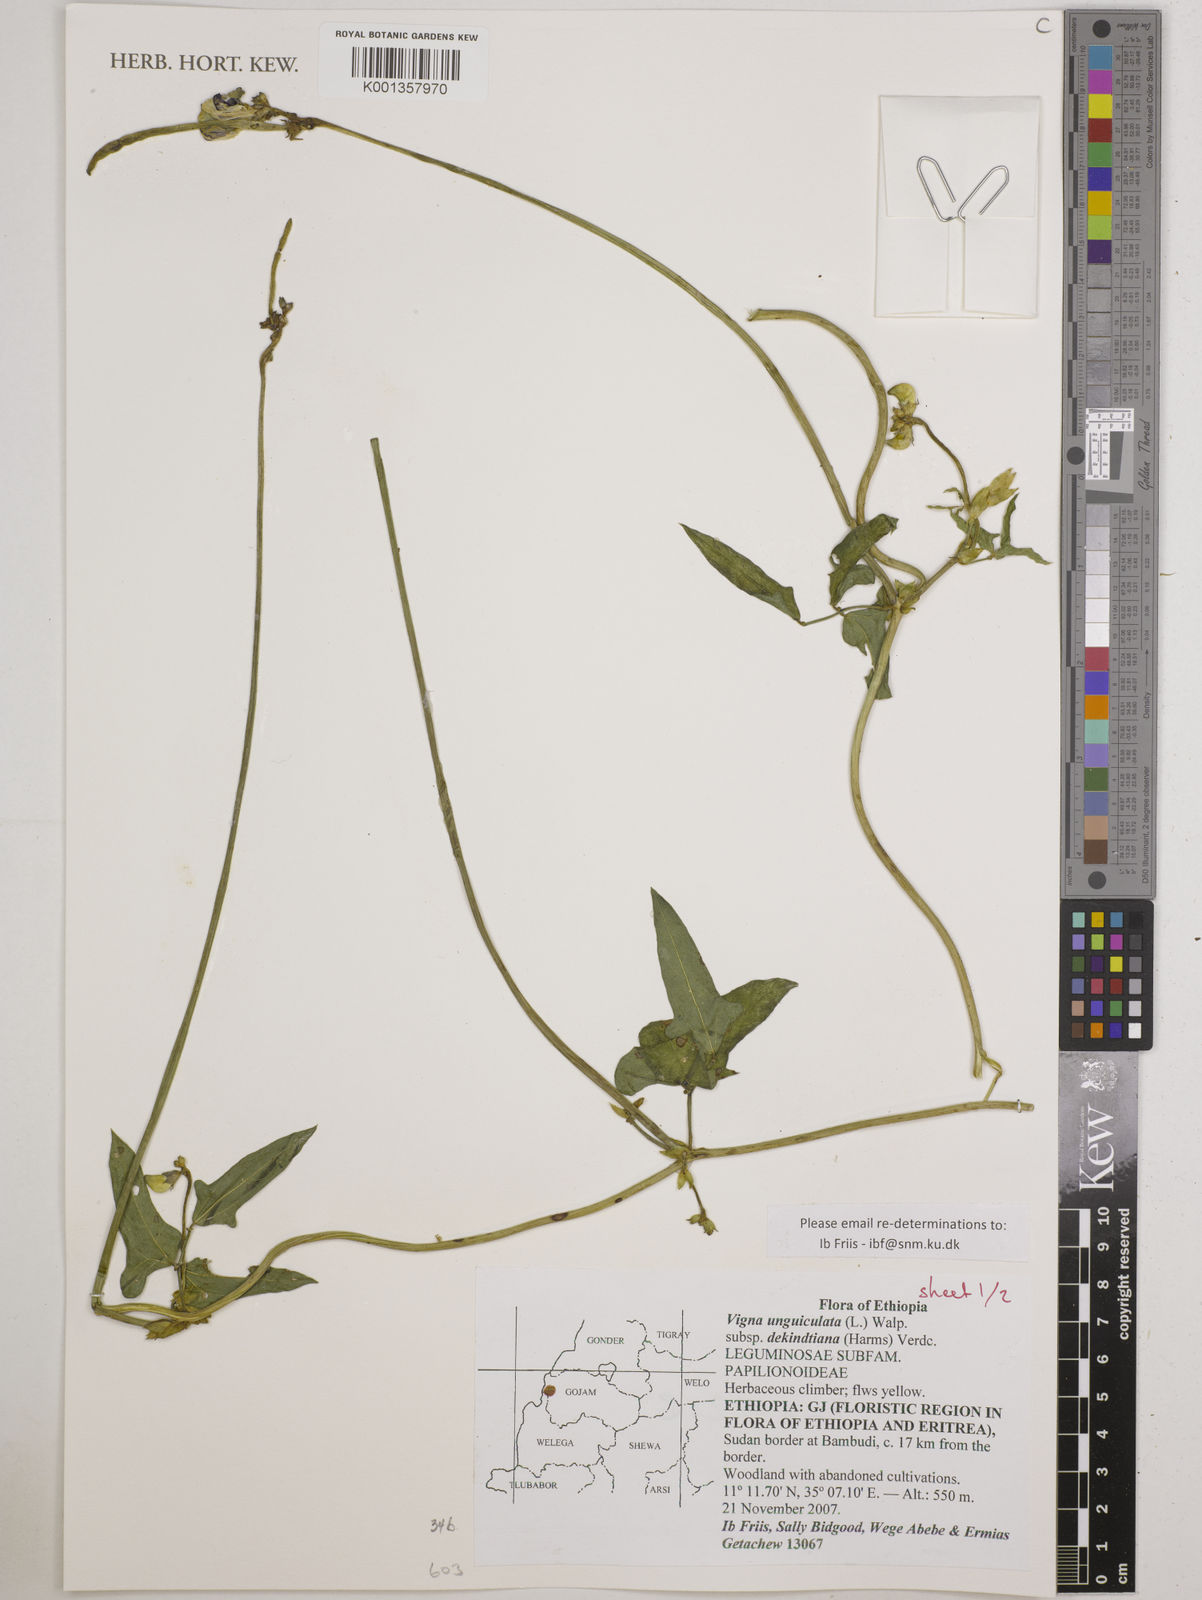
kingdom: Plantae
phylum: Tracheophyta
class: Magnoliopsida
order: Fabales
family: Fabaceae
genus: Vigna
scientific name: Vigna
